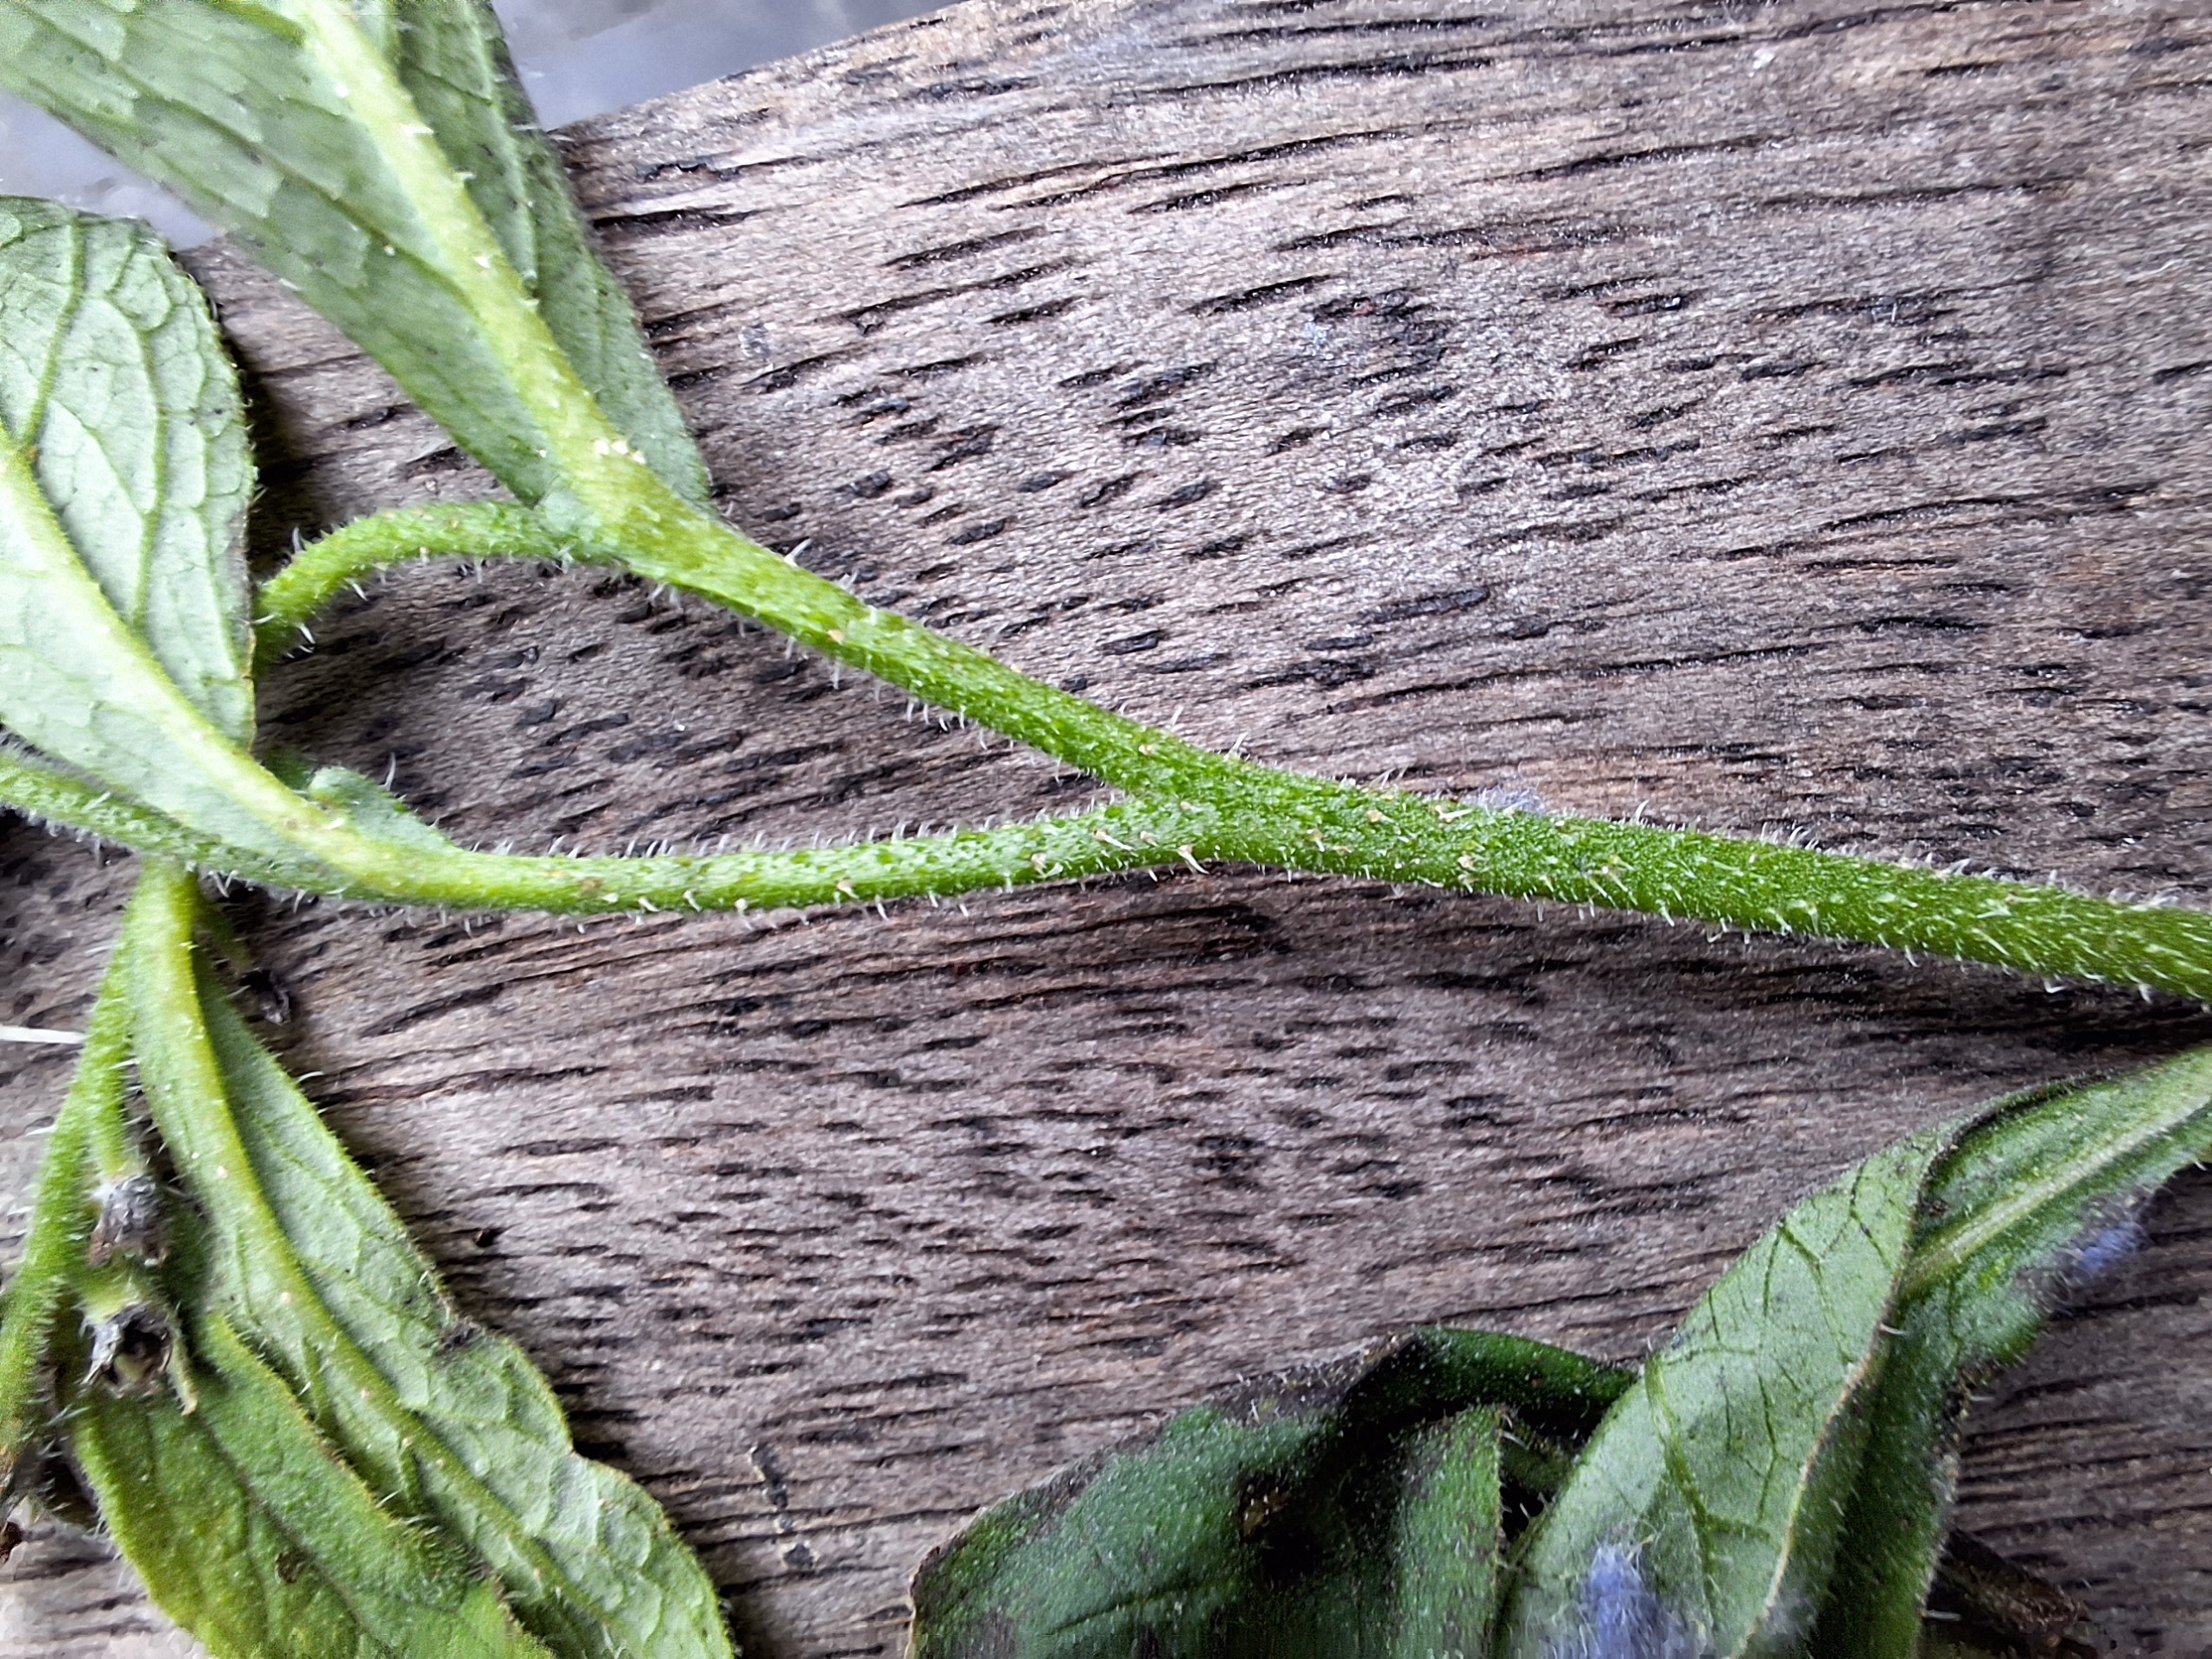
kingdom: Plantae
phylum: Tracheophyta
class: Magnoliopsida
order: Boraginales
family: Boraginaceae
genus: Symphytum
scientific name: Symphytum uplandicum
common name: Foder-kulsukker
